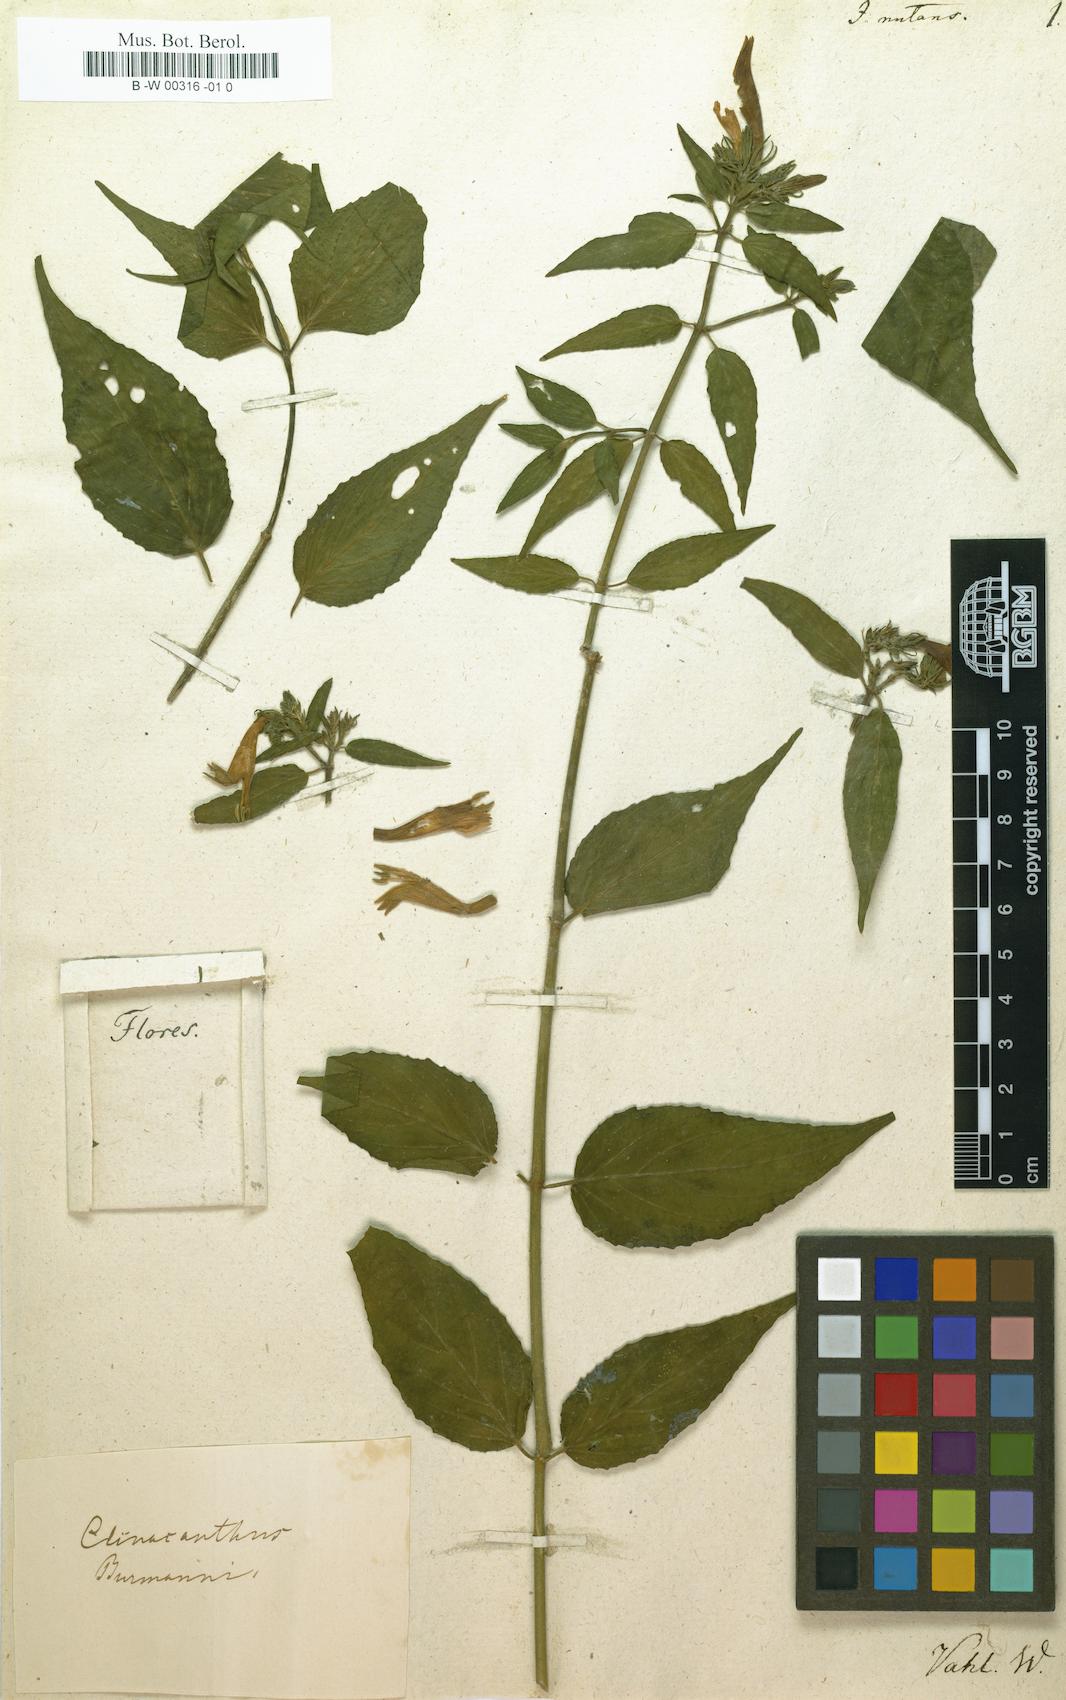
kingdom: Plantae
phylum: Tracheophyta
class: Magnoliopsida
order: Lamiales
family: Acanthaceae
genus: Clinacanthus
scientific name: Clinacanthus nutans
